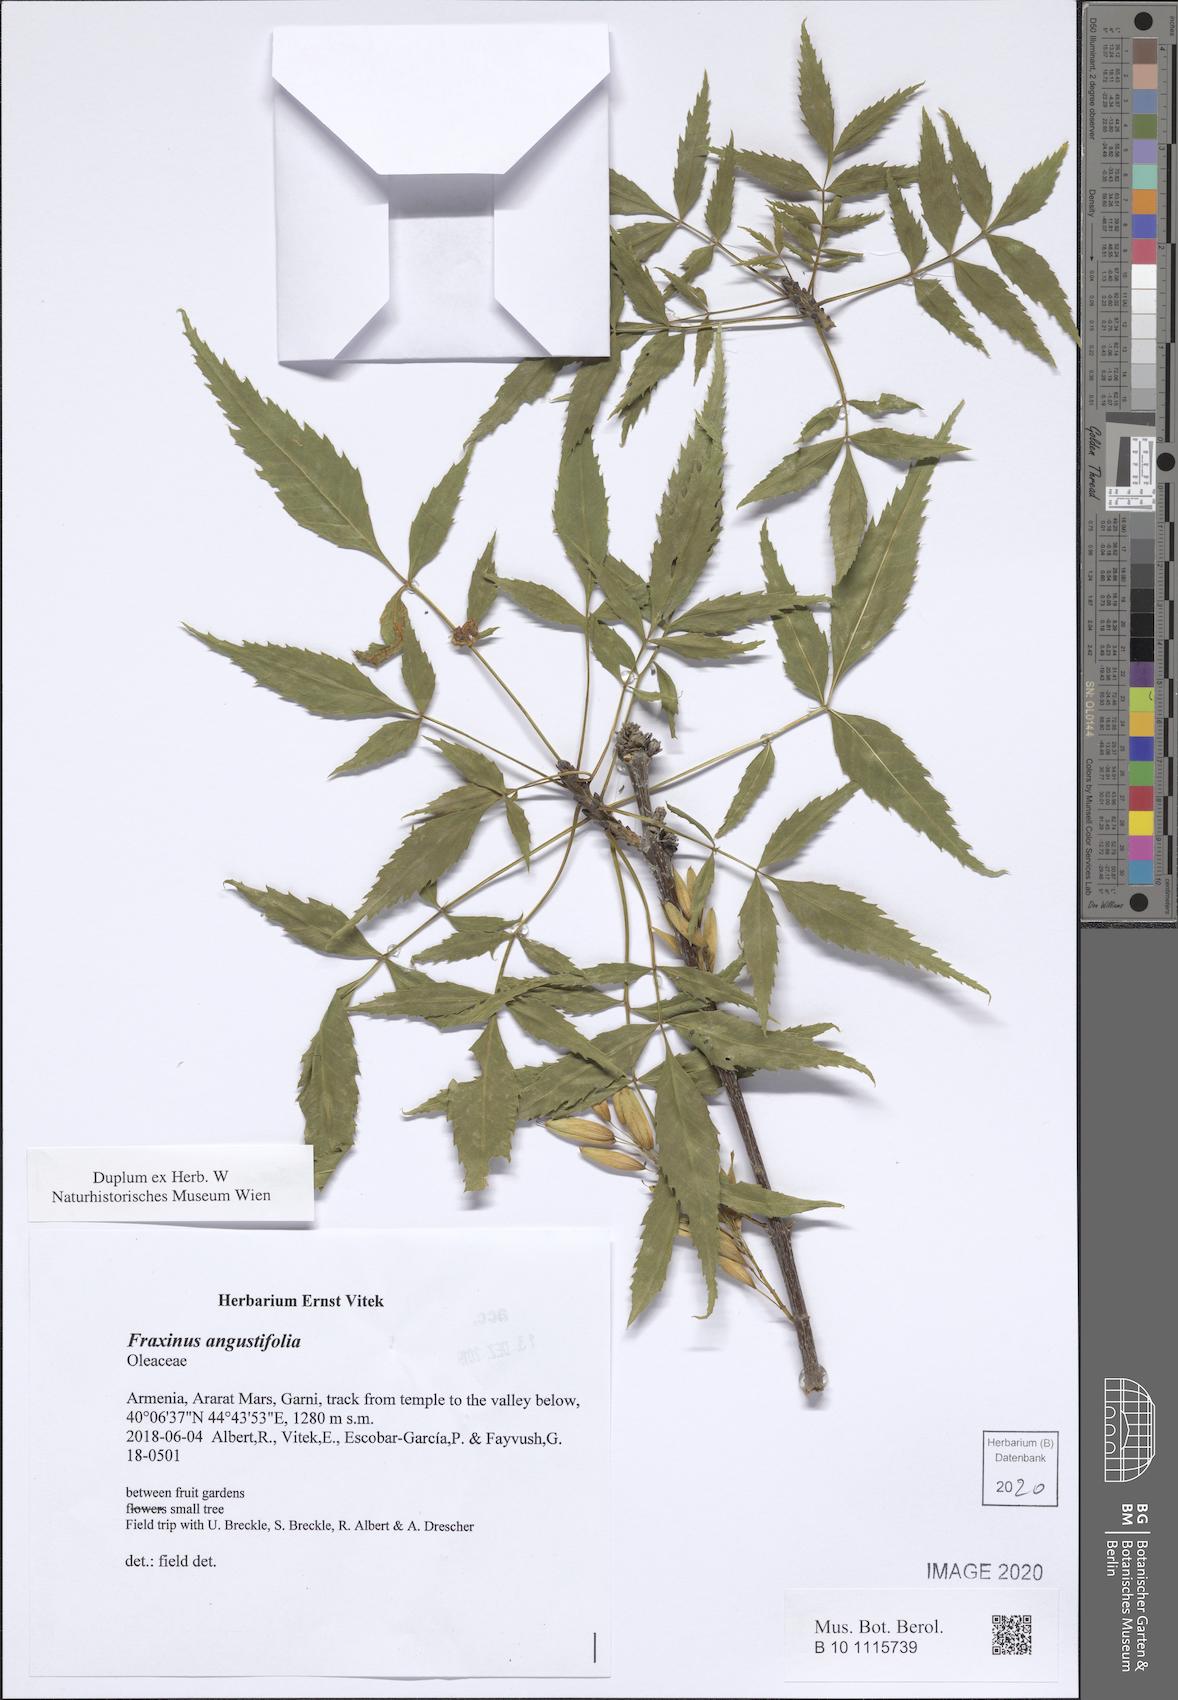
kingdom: Plantae
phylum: Tracheophyta
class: Magnoliopsida
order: Lamiales
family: Oleaceae
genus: Fraxinus
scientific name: Fraxinus angustifolia
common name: Narrow-leafed ash
